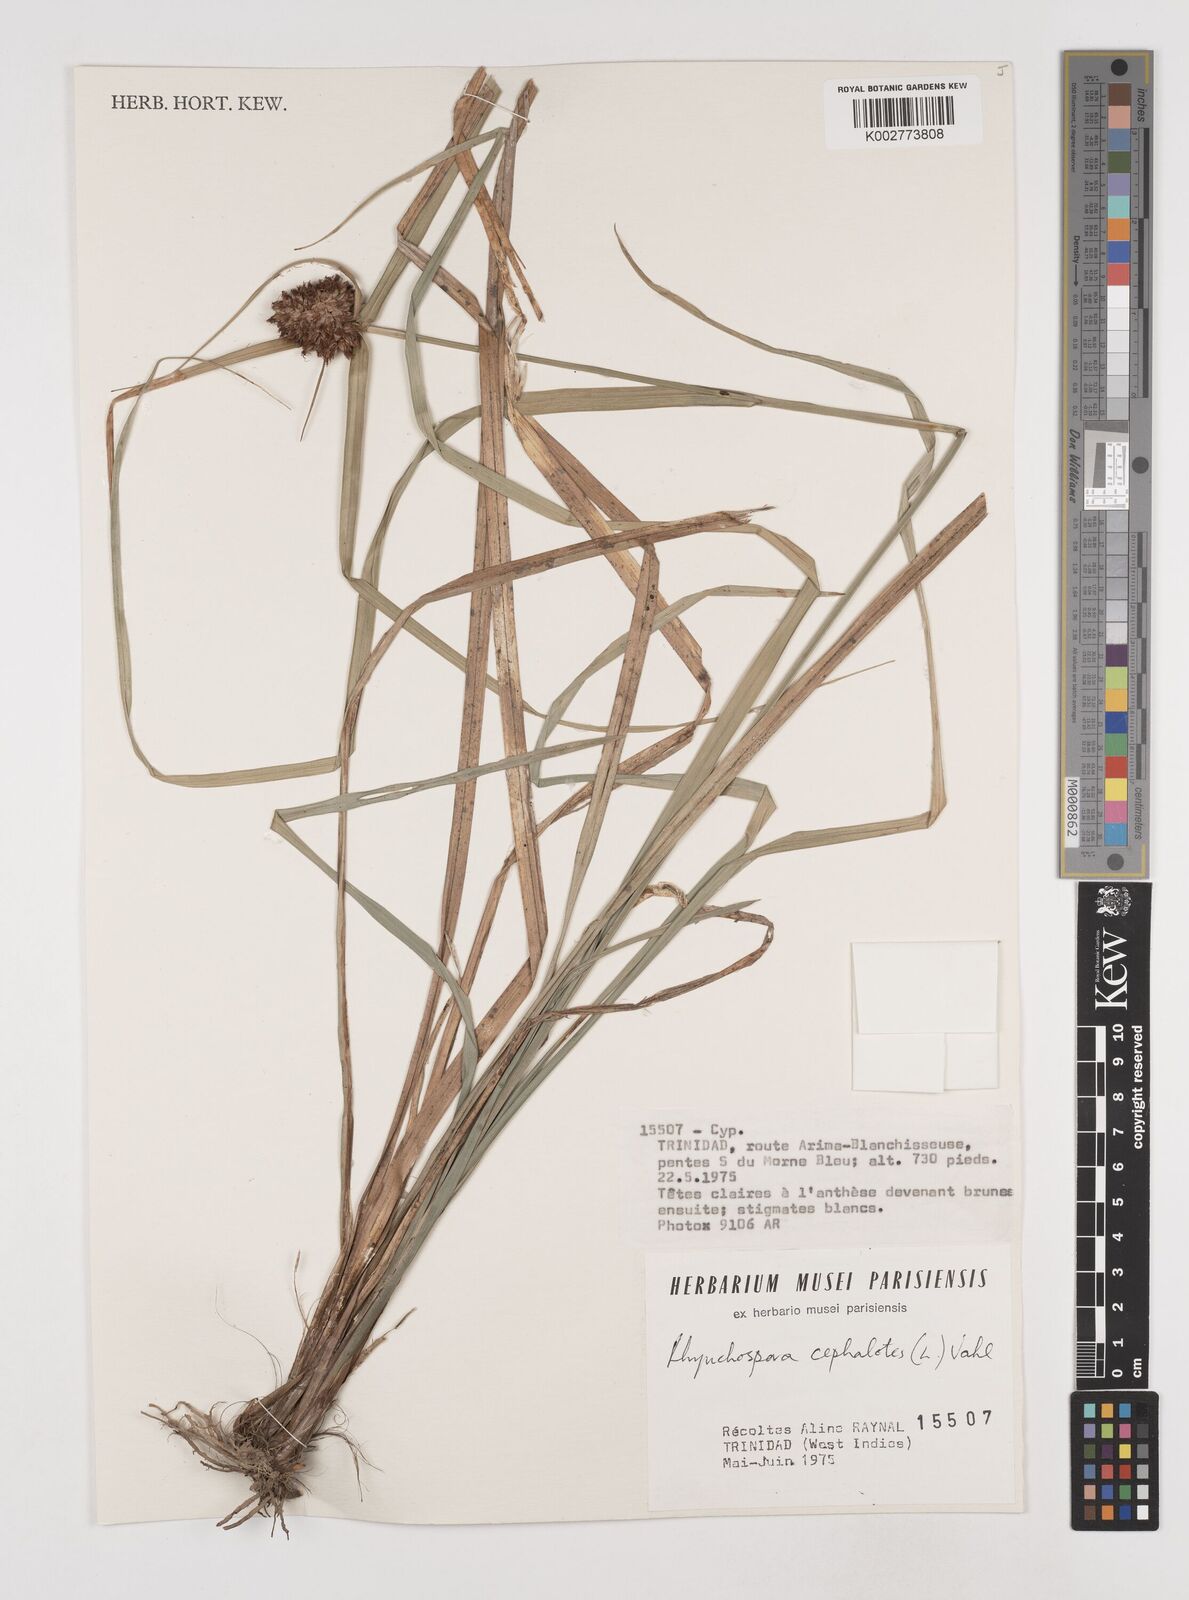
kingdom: Plantae
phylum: Tracheophyta
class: Liliopsida
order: Poales
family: Cyperaceae
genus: Rhynchospora
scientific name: Rhynchospora cephalotes
